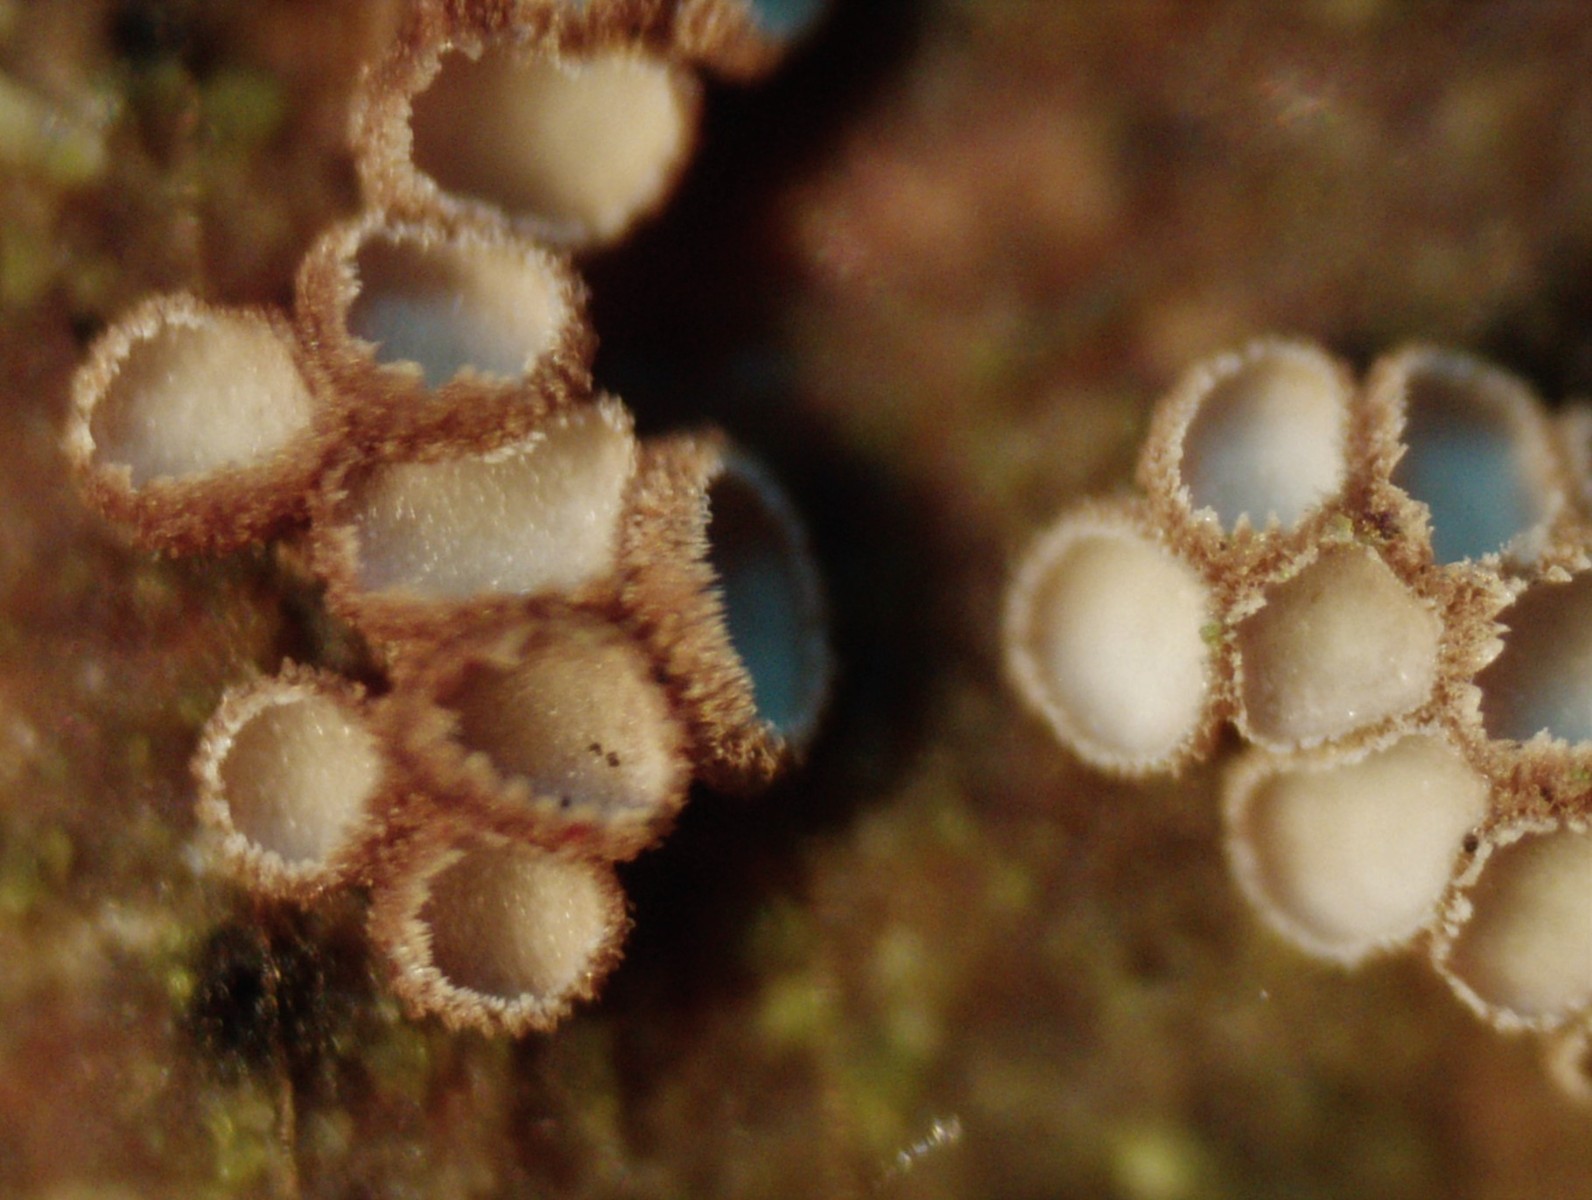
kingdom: Fungi
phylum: Basidiomycota
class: Agaricomycetes
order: Agaricales
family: Niaceae
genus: Merismodes
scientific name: Merismodes
